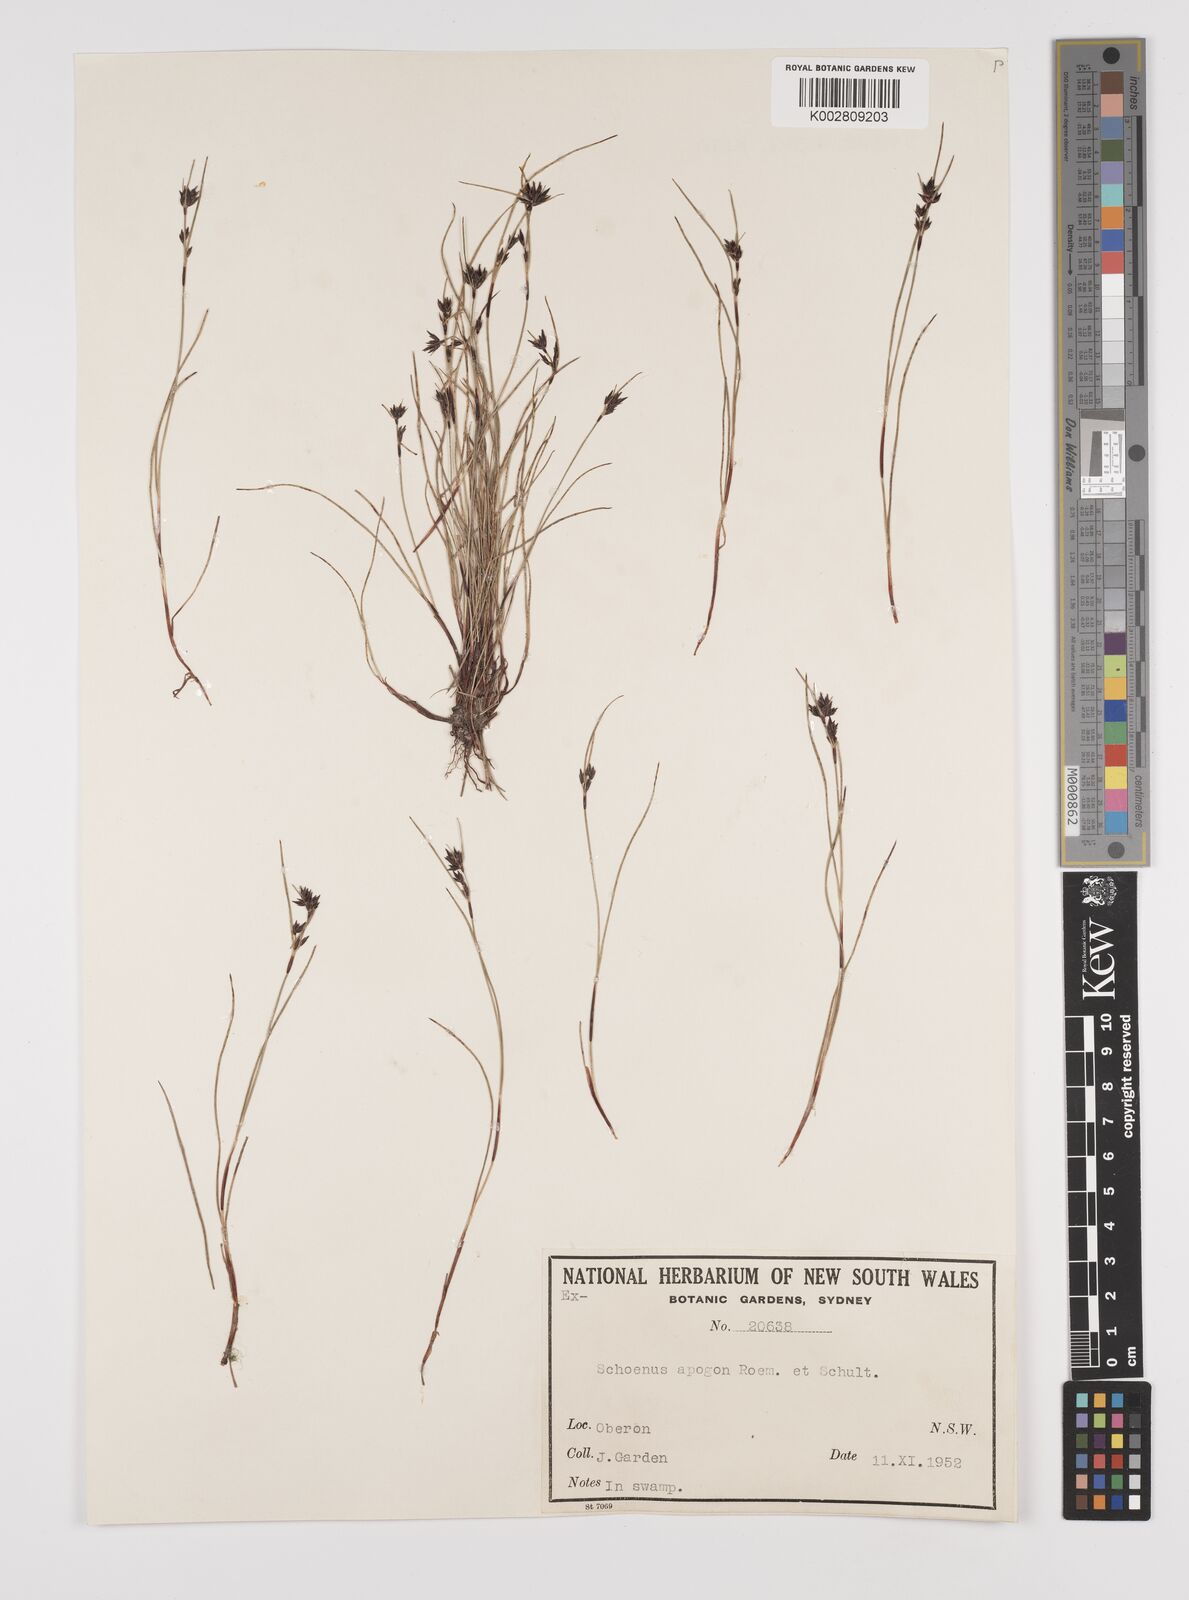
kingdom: Plantae
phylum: Tracheophyta
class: Liliopsida
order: Poales
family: Cyperaceae
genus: Schoenus
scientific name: Schoenus apogon
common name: Smooth bogrush
